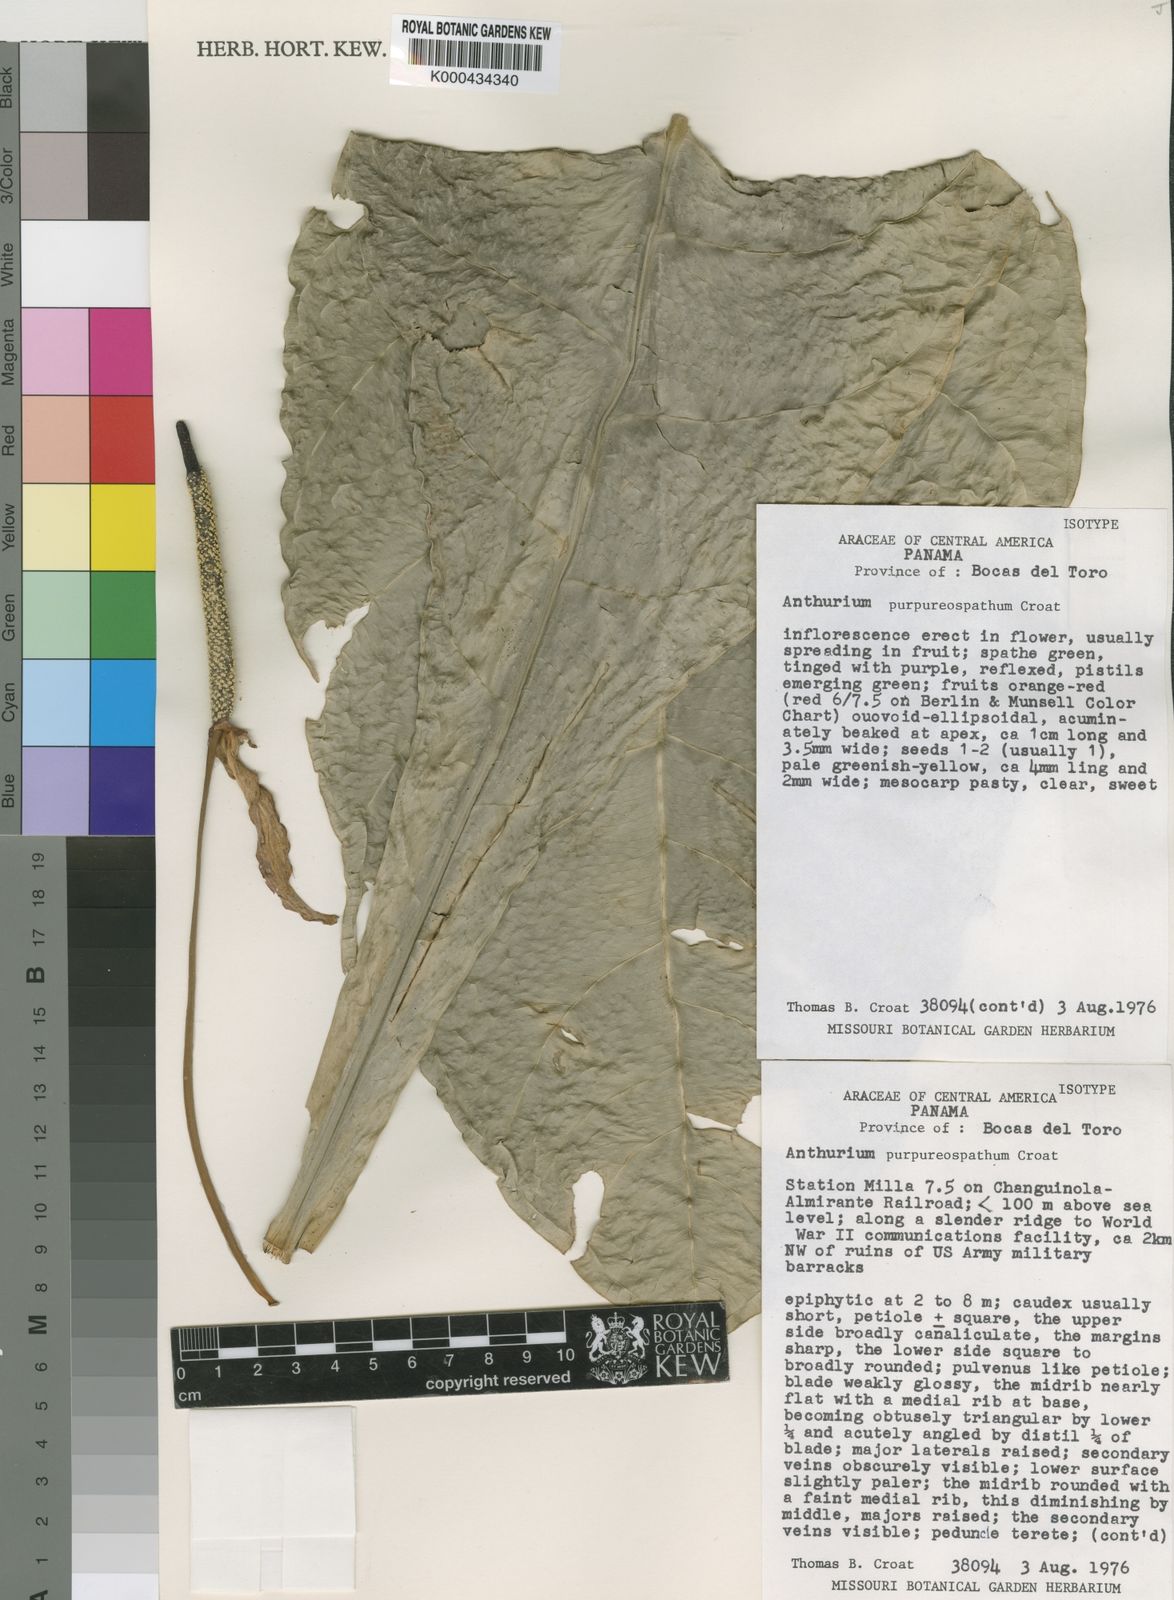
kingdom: Plantae
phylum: Tracheophyta
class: Liliopsida
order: Alismatales
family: Araceae
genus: Anthurium
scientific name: Anthurium purpureospathum
